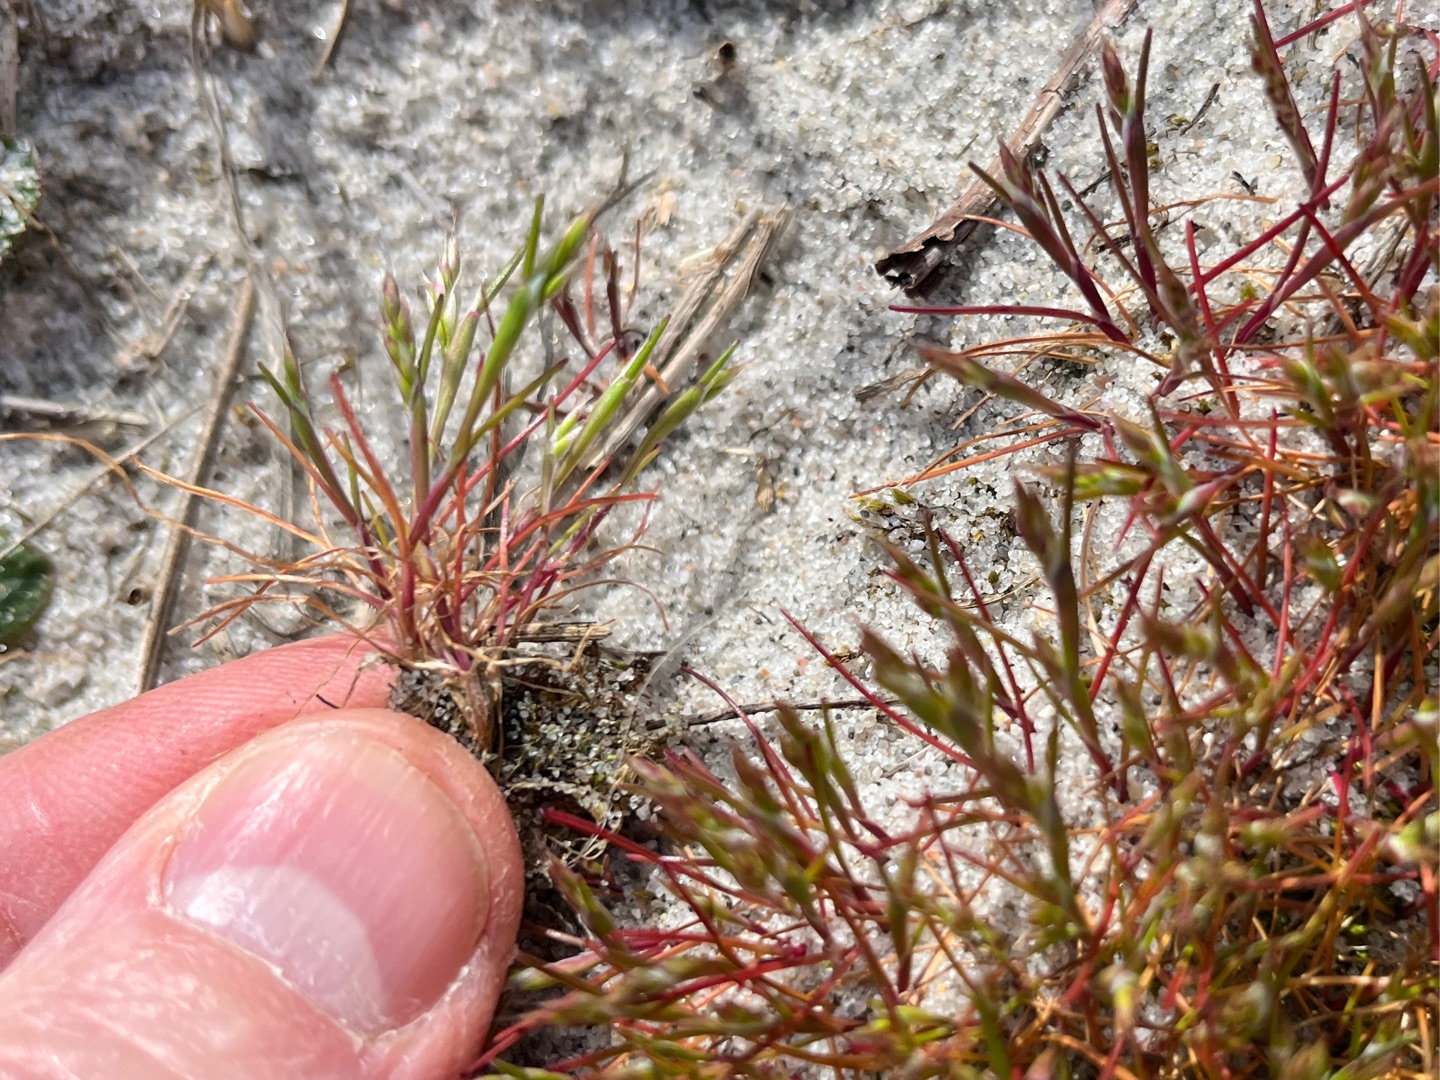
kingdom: Plantae
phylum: Tracheophyta
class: Liliopsida
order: Poales
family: Poaceae
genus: Aira
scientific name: Aira praecox
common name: Tidlig dværgbunke
